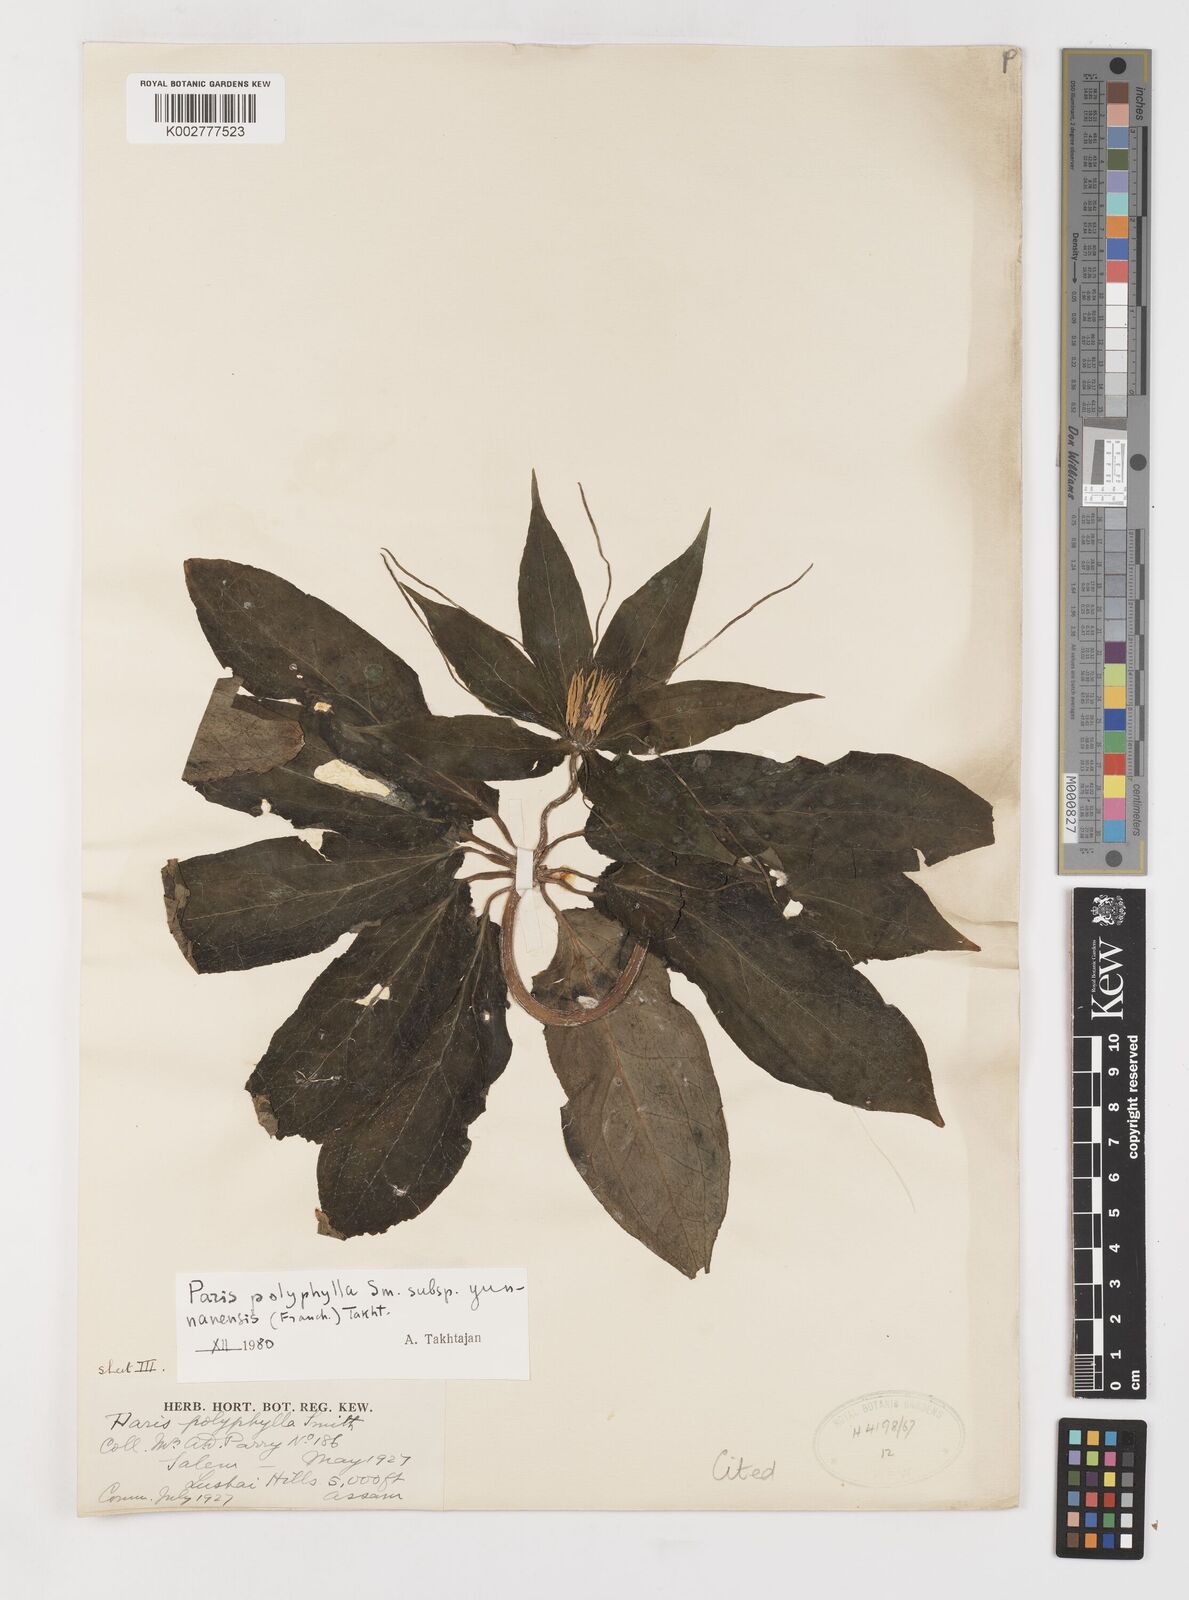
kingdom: Plantae
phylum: Tracheophyta
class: Liliopsida
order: Liliales
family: Melanthiaceae
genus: Paris
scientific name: Paris yunnanensis
